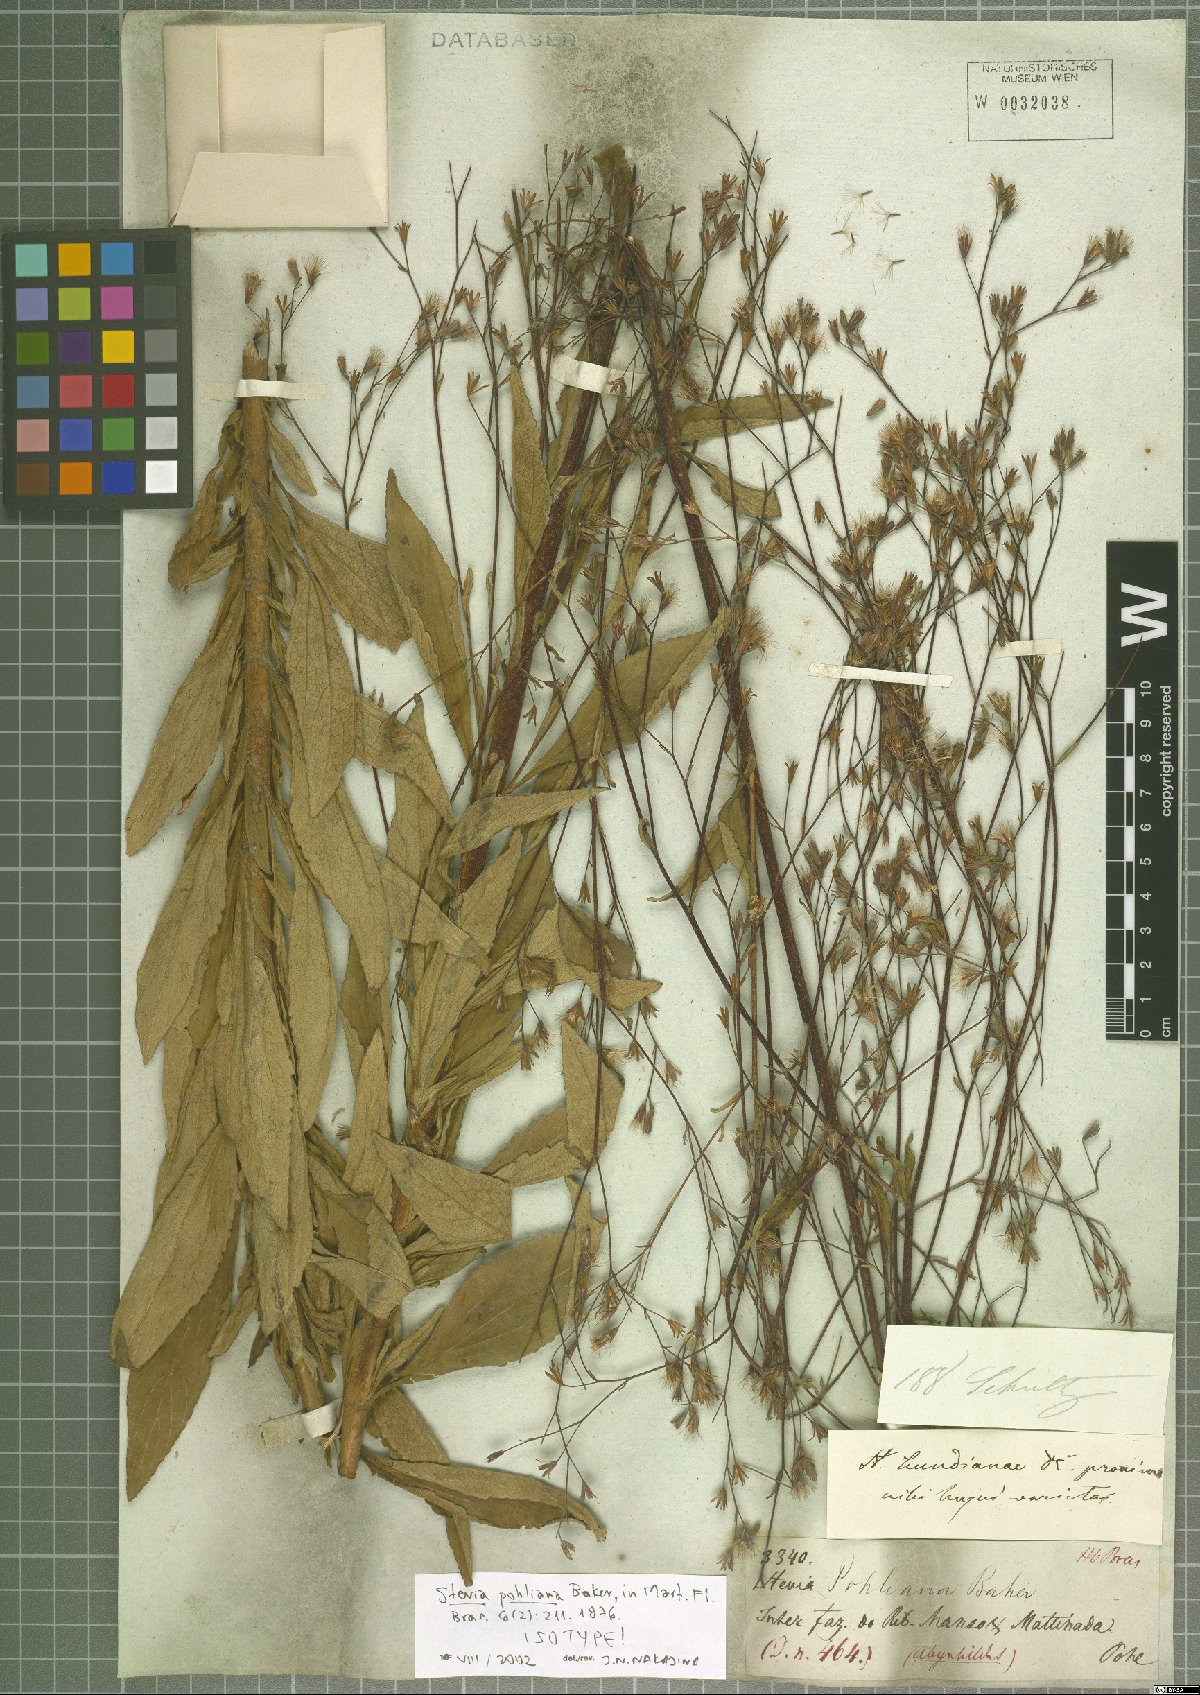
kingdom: Plantae
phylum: Tracheophyta
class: Magnoliopsida
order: Asterales
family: Asteraceae
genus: Stevia
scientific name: Stevia pohliana
